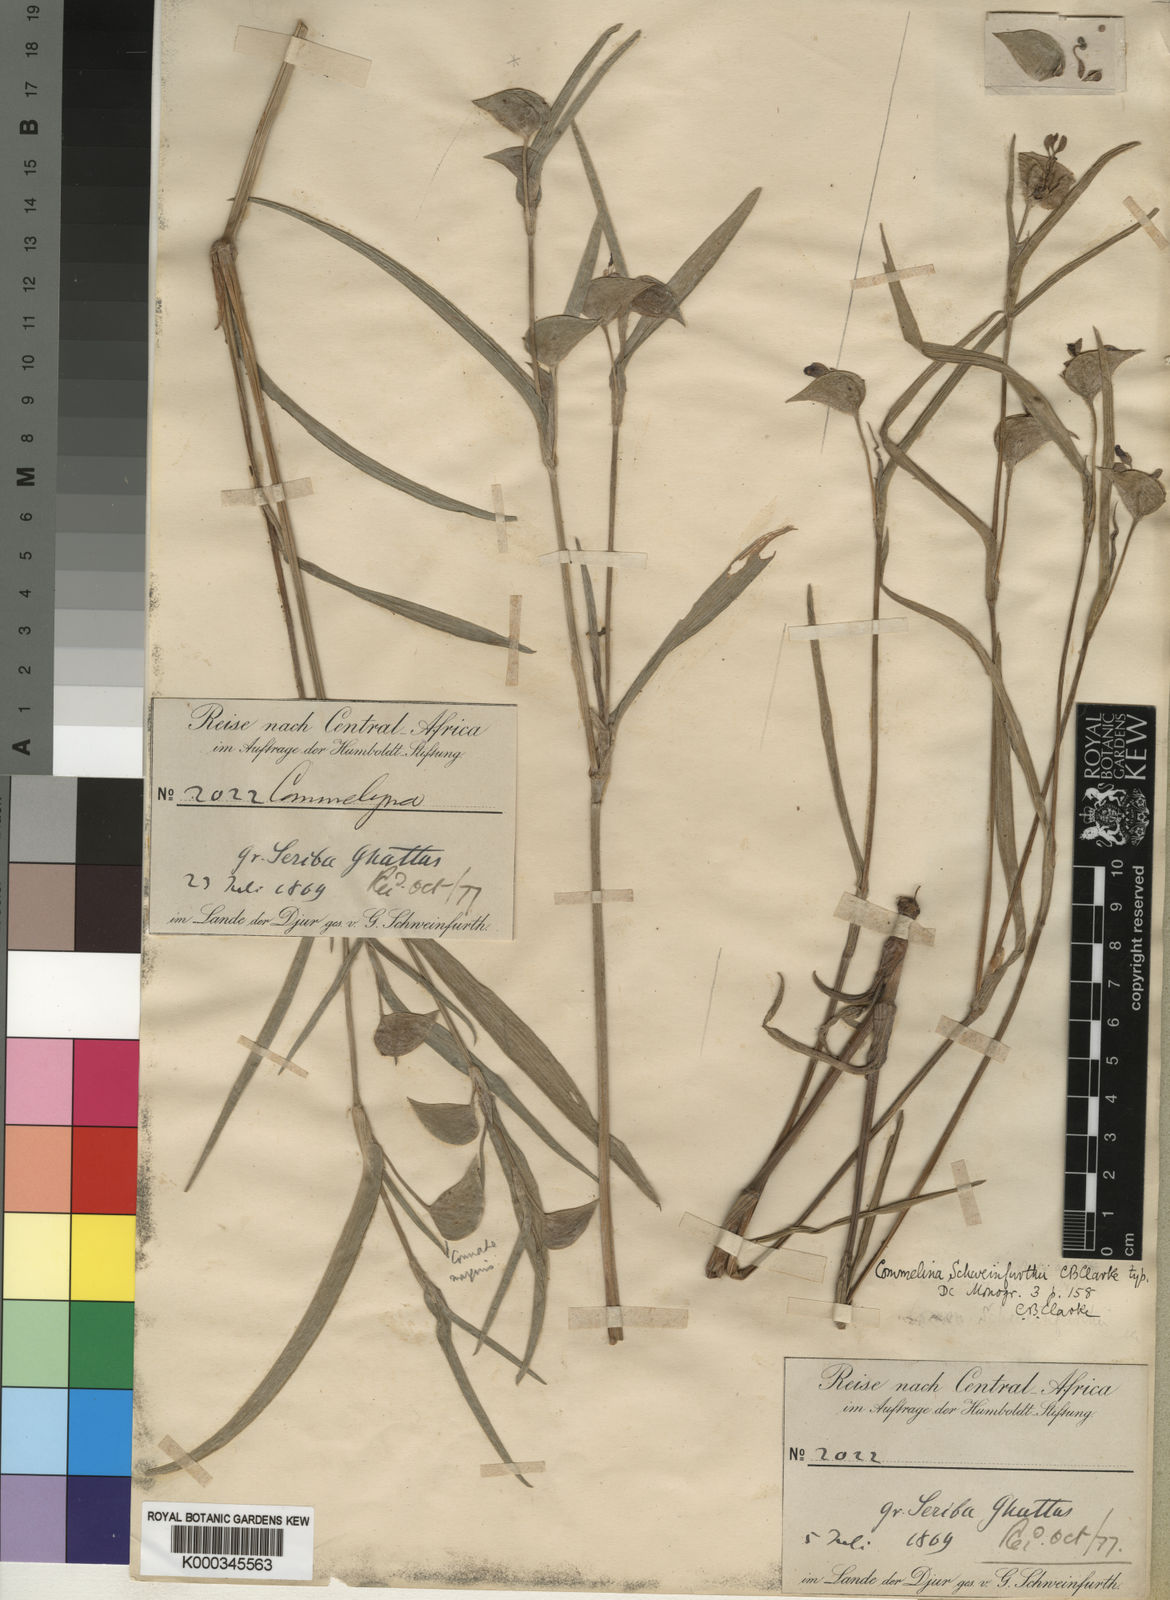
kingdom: Plantae
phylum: Tracheophyta
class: Liliopsida
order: Commelinales
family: Commelinaceae
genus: Commelina
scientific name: Commelina schweinfurthii
